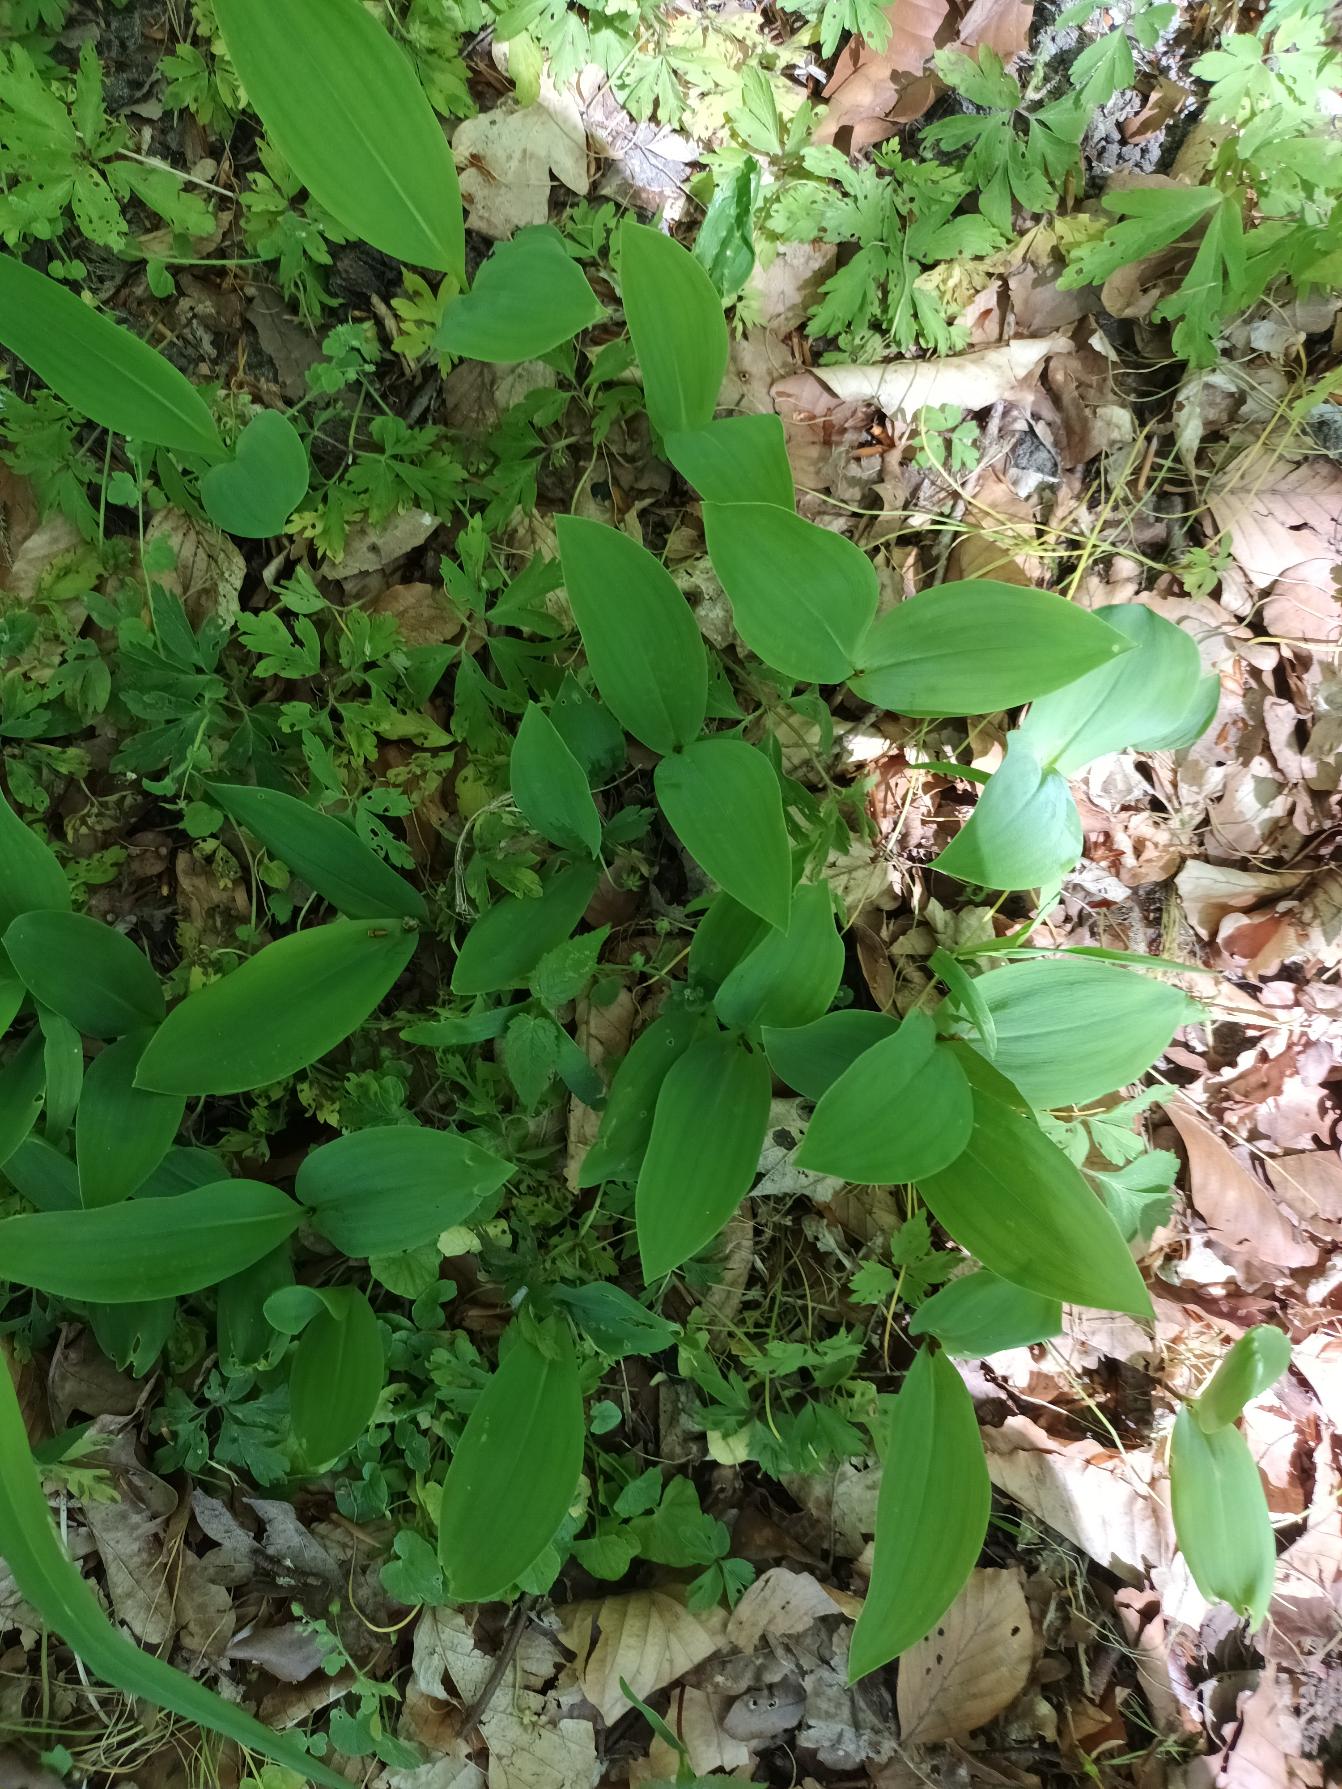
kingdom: Plantae
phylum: Tracheophyta
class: Liliopsida
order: Asparagales
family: Asparagaceae
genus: Convallaria
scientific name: Convallaria majalis
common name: Liljekonval
